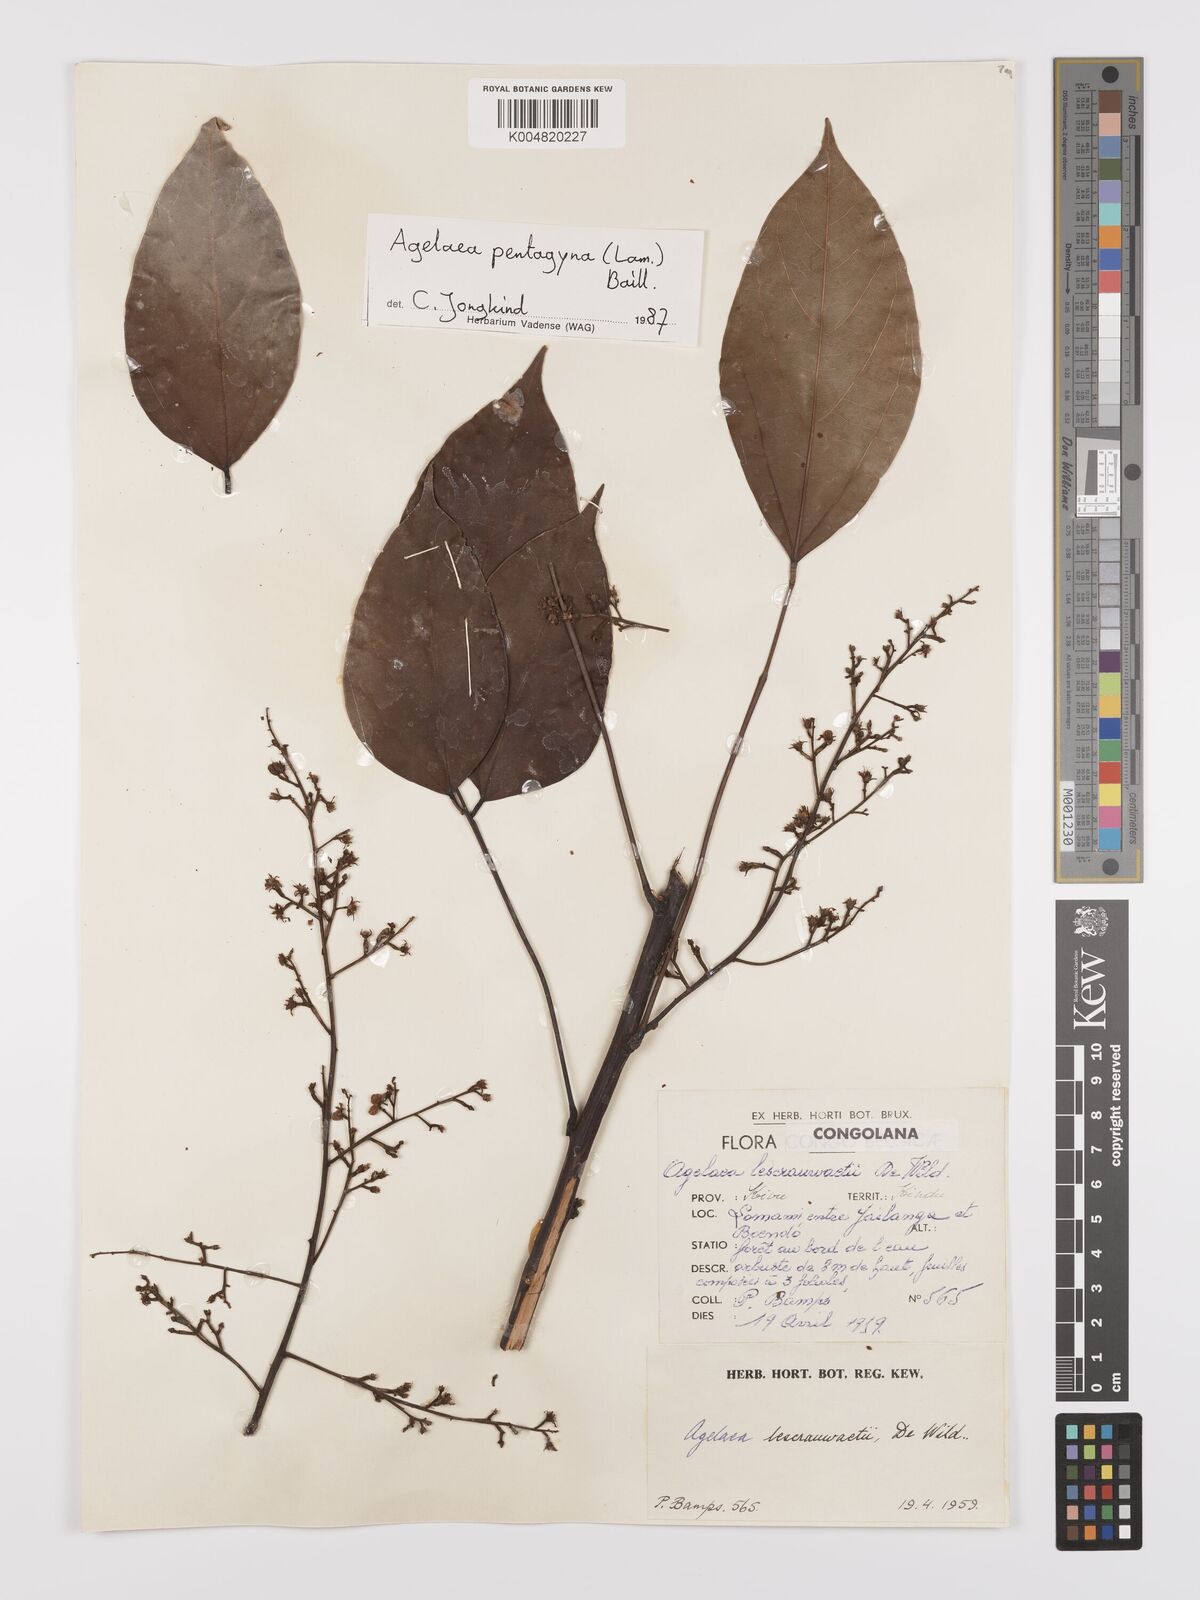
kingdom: Plantae
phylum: Tracheophyta
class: Magnoliopsida
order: Oxalidales
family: Connaraceae
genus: Agelaea
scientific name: Agelaea pentagyna
